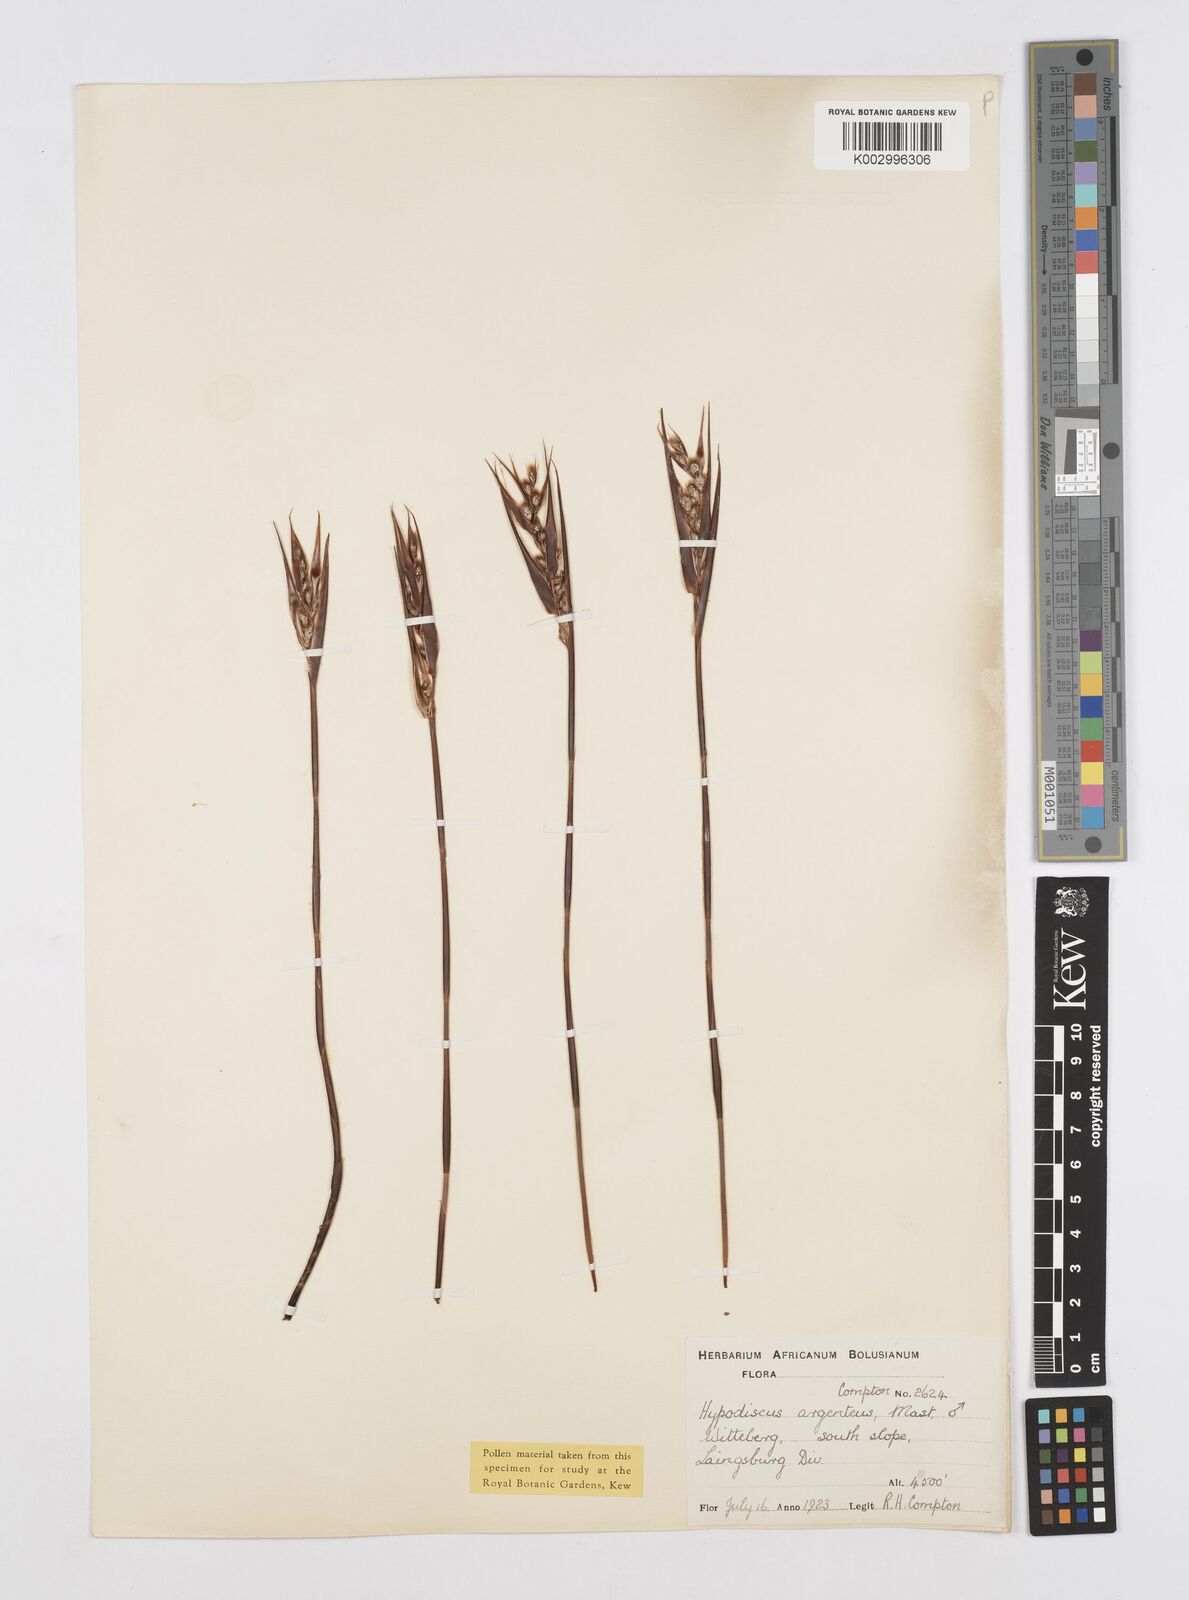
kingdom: Plantae
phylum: Tracheophyta
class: Liliopsida
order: Poales
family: Restionaceae
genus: Hypodiscus
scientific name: Hypodiscus argenteus
